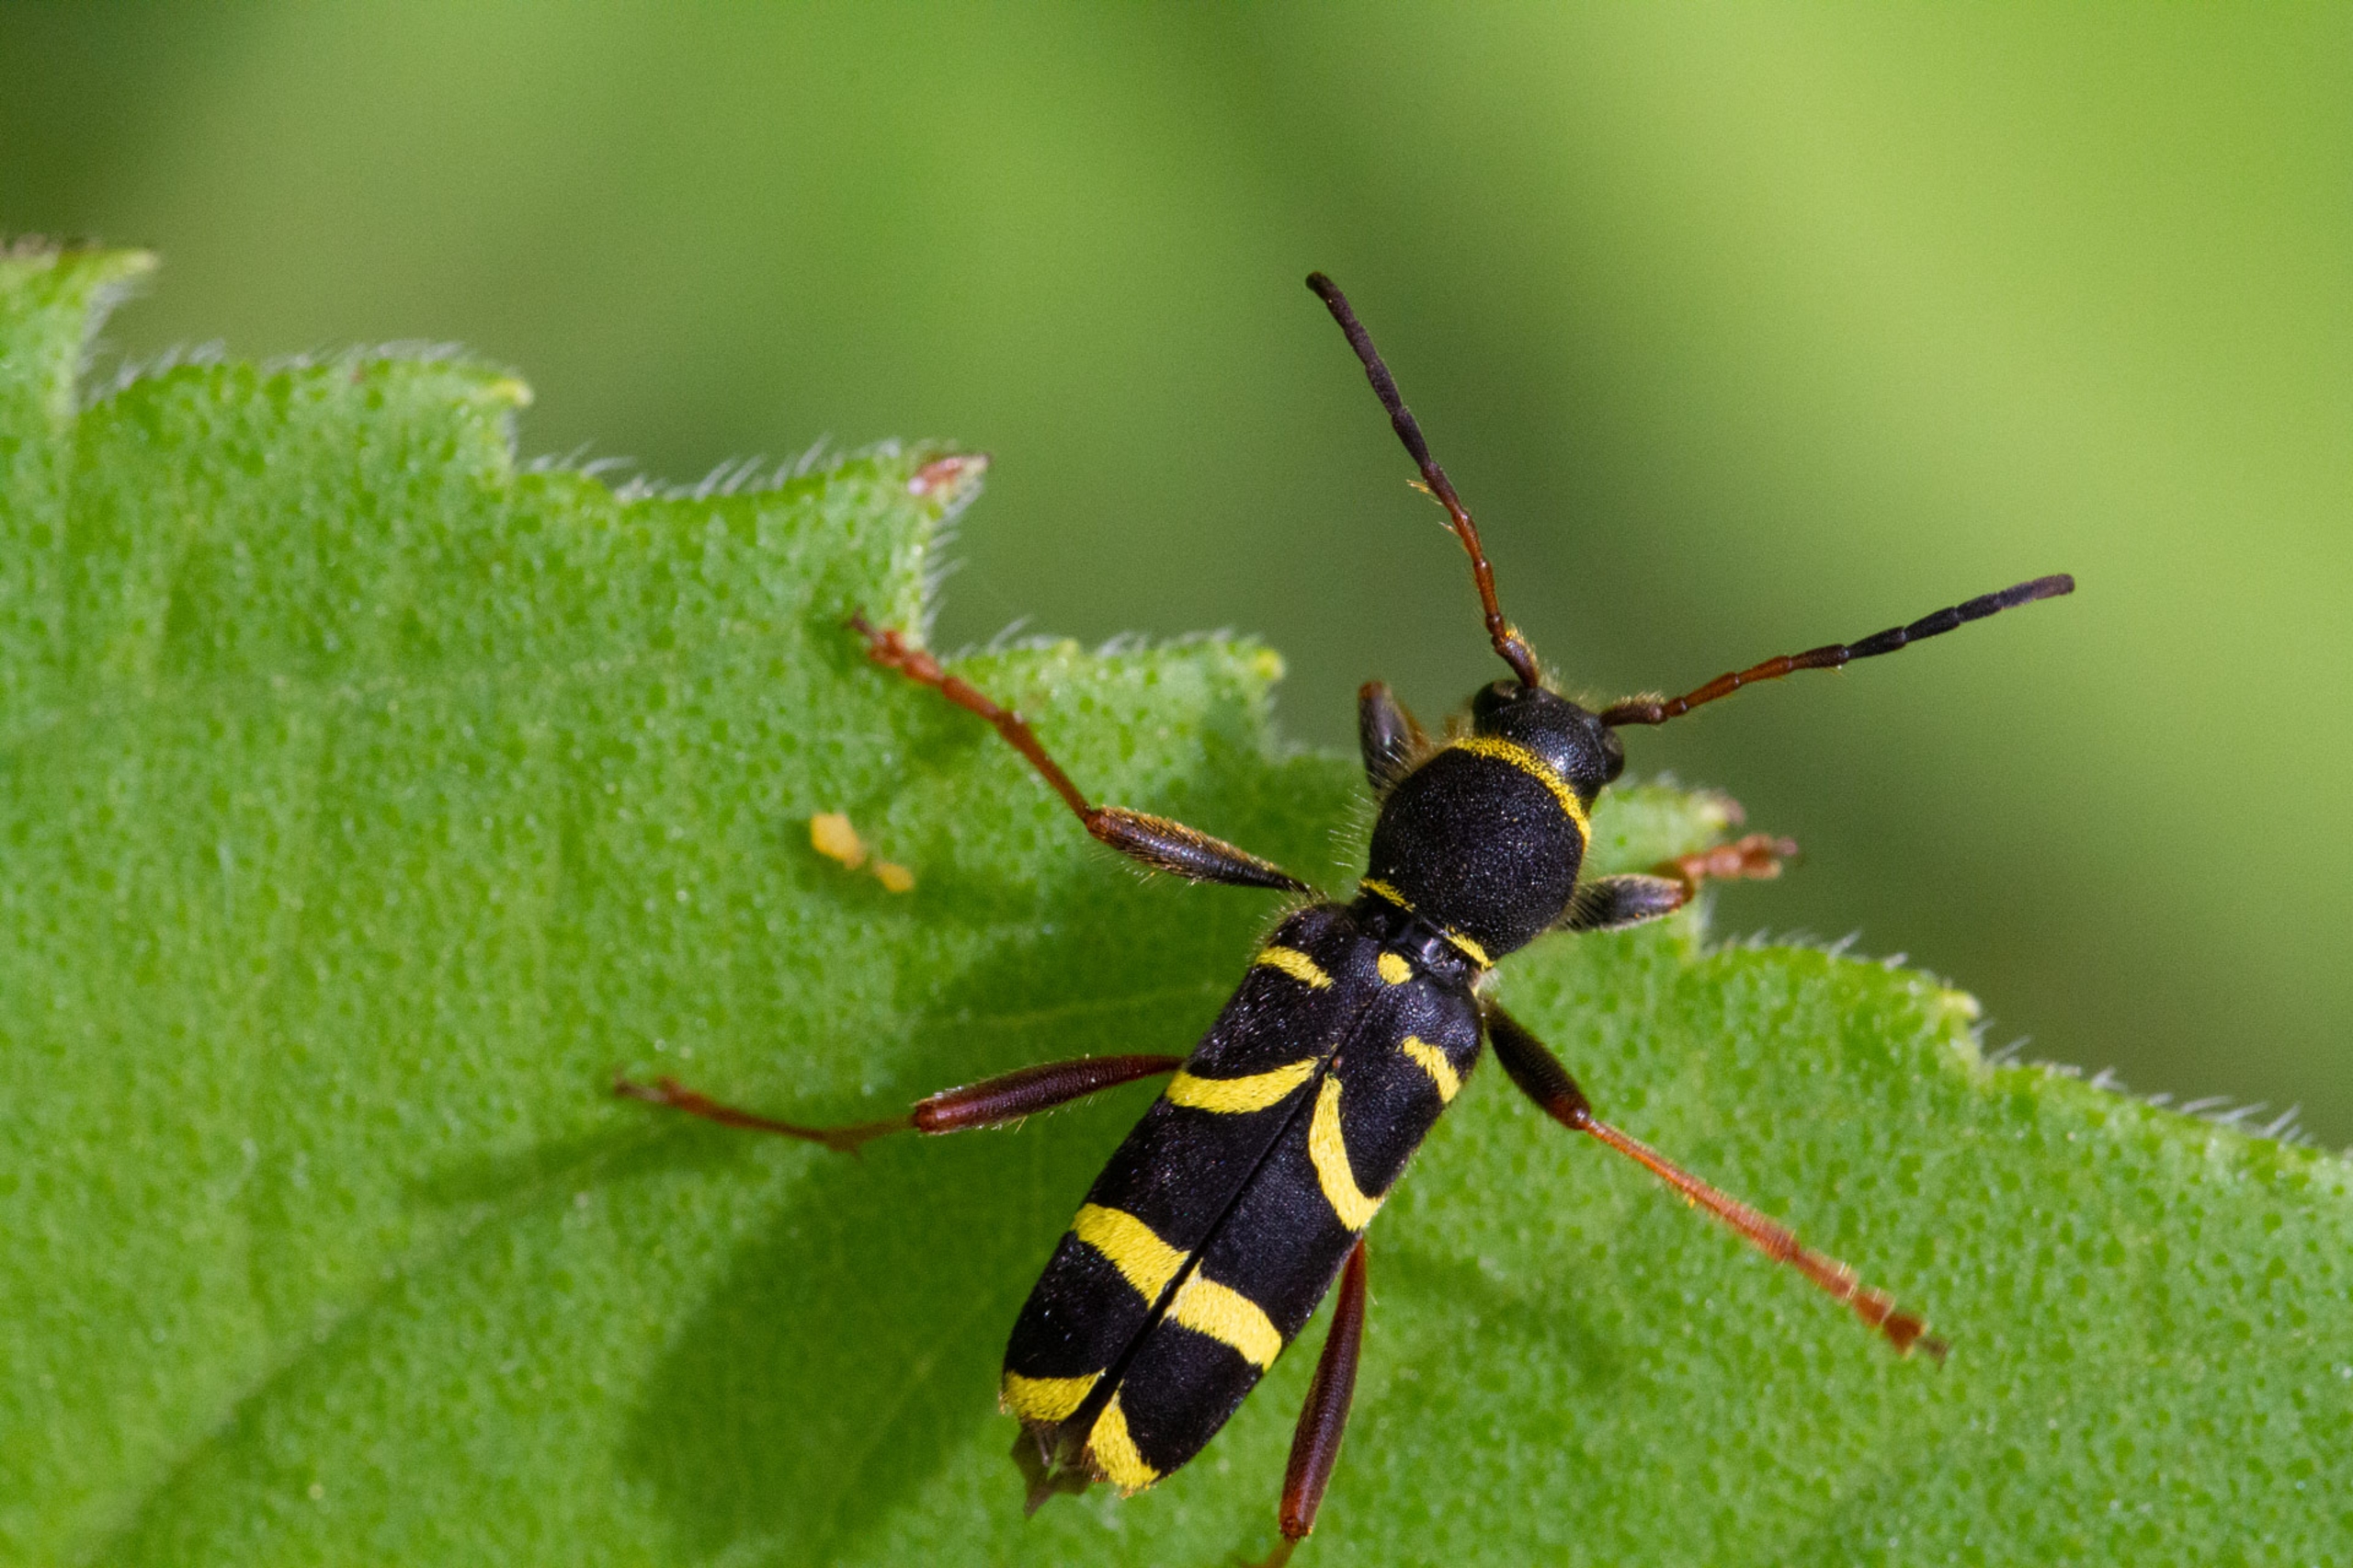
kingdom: Animalia
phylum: Arthropoda
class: Insecta
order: Coleoptera
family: Cerambycidae
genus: Clytus
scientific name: Clytus arietis
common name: Lille hvepsebuk
